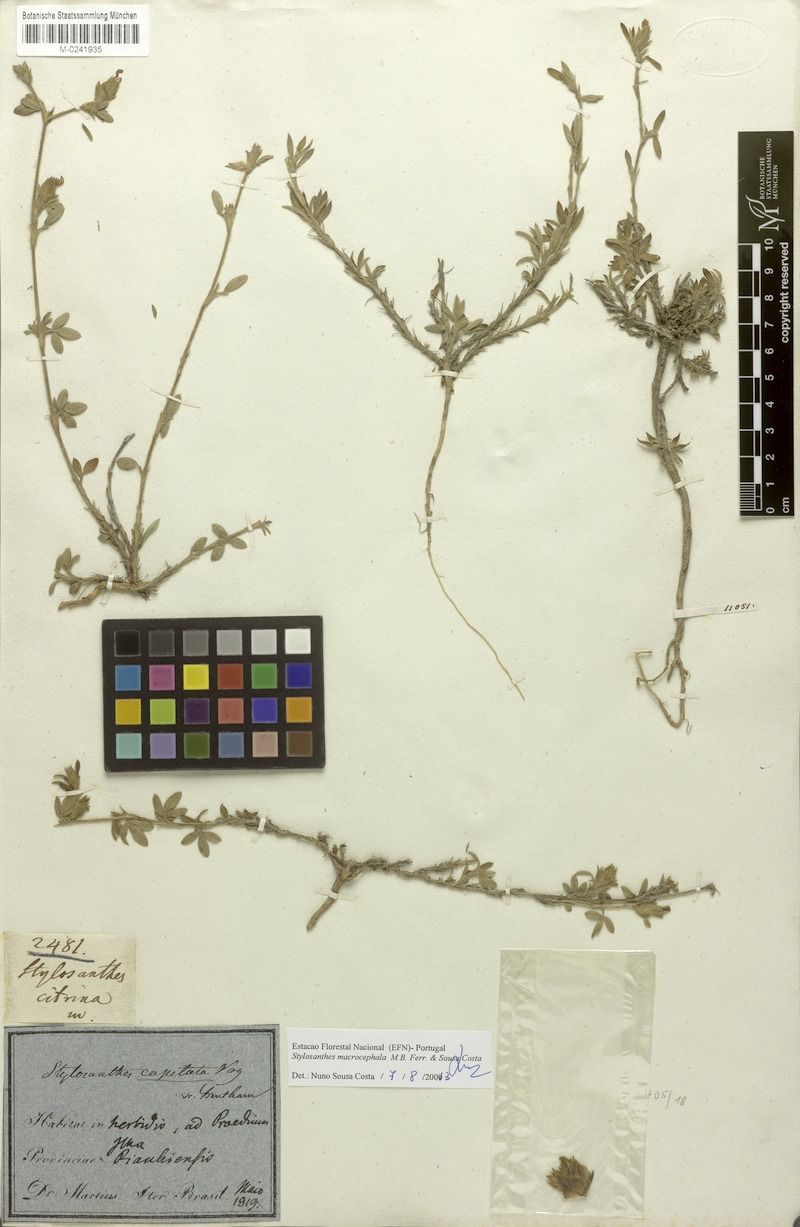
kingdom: Plantae
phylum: Tracheophyta
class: Magnoliopsida
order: Fabales
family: Fabaceae
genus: Stylosanthes
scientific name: Stylosanthes macrocephala
